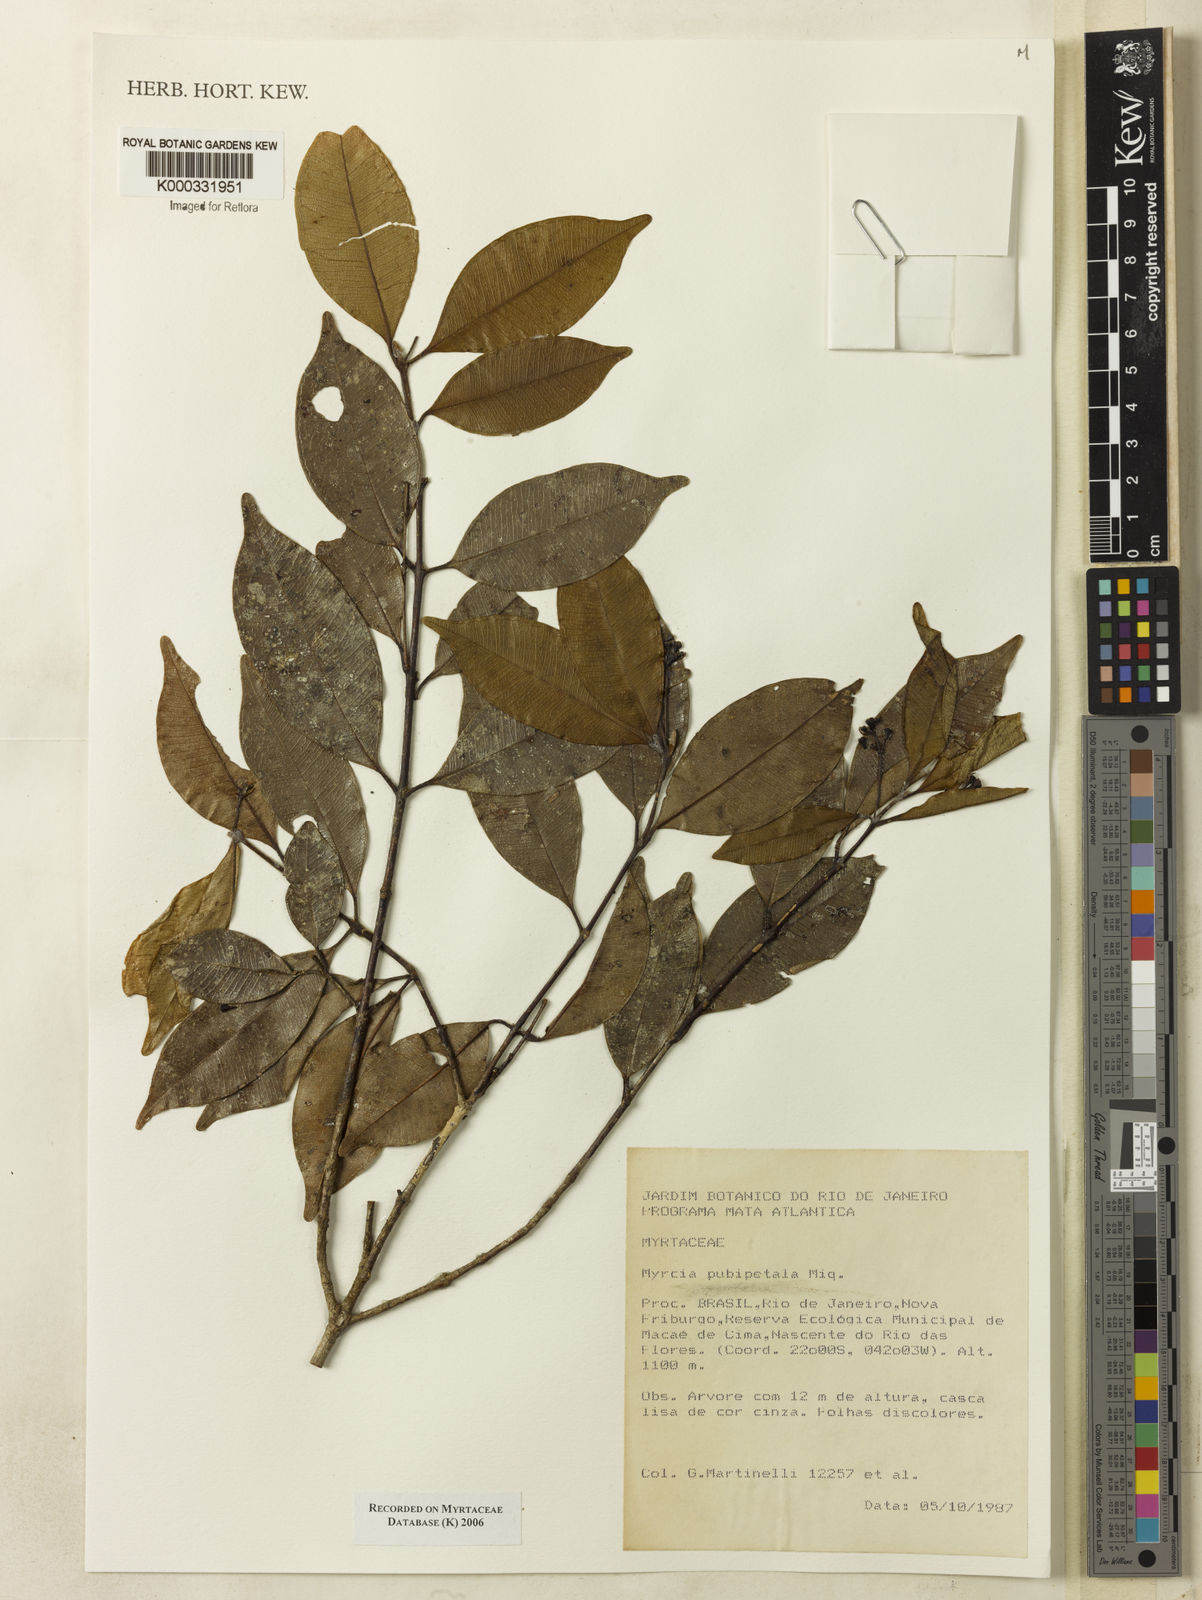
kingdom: Plantae
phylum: Tracheophyta
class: Magnoliopsida
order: Myrtales
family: Myrtaceae
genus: Myrcia
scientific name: Myrcia pubipetala
